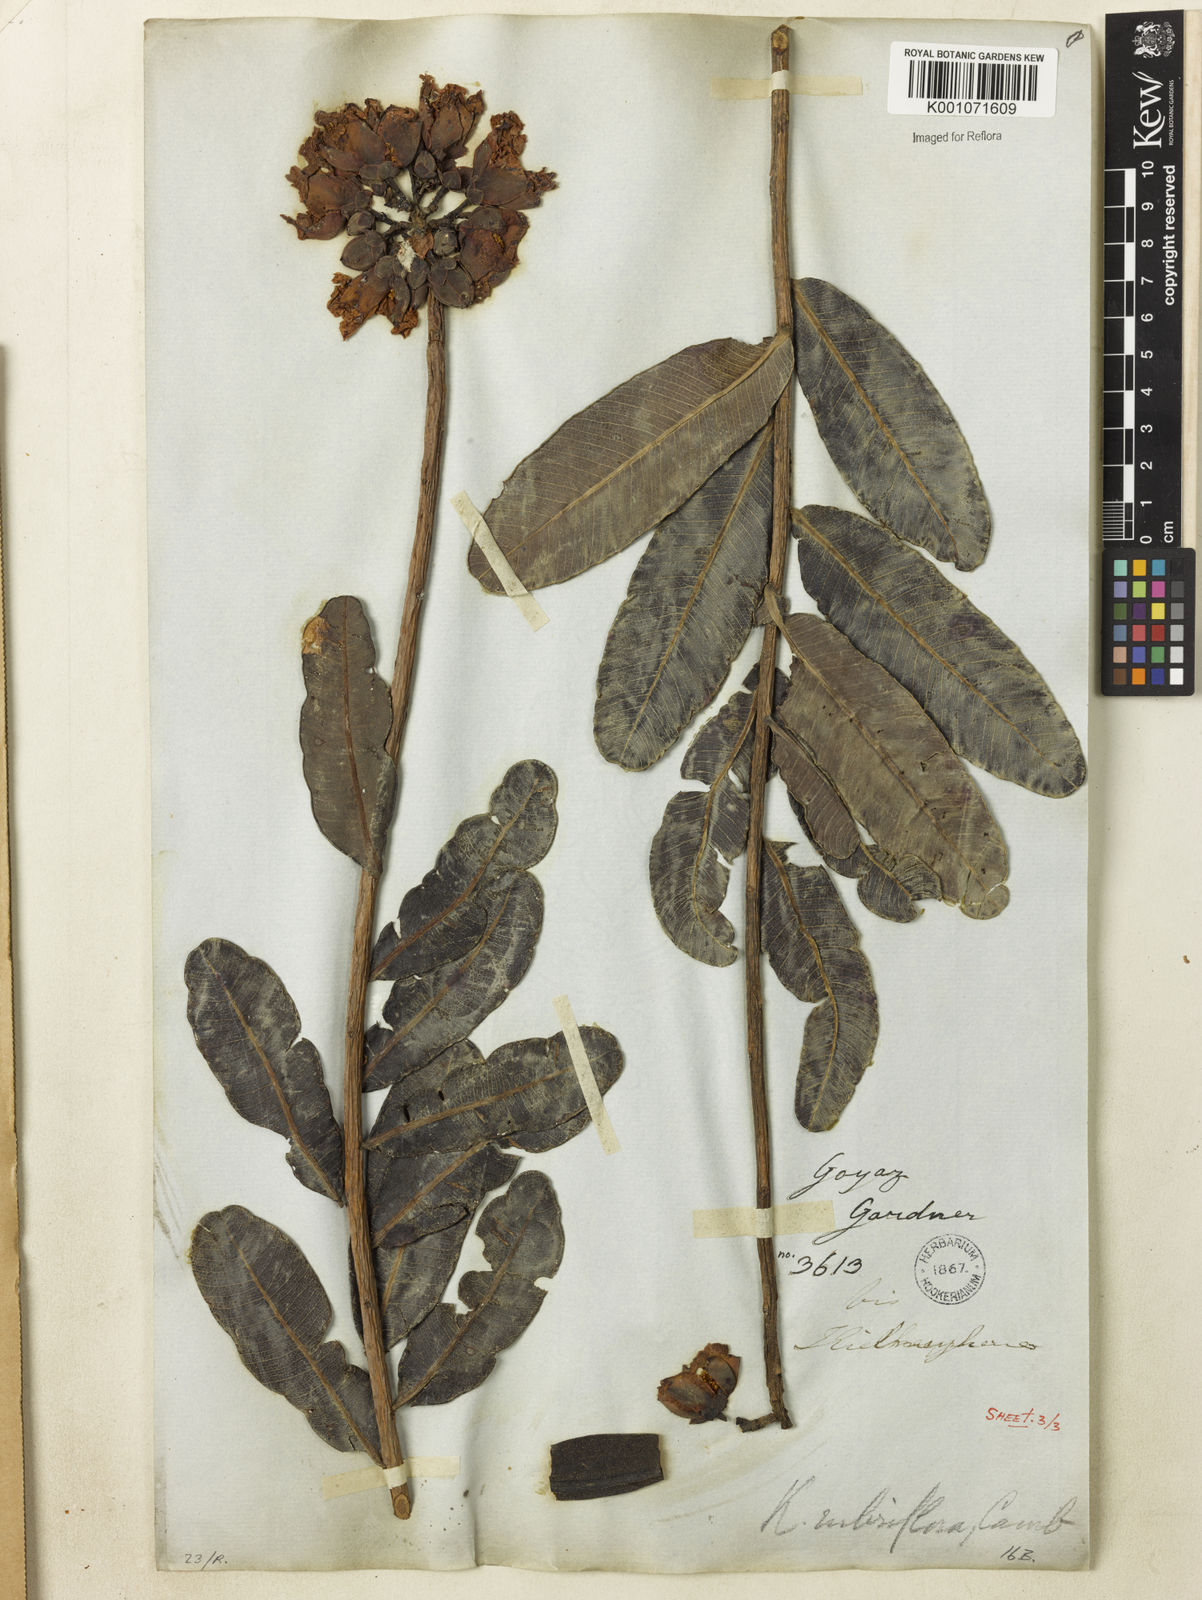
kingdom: Plantae
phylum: Tracheophyta
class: Magnoliopsida
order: Malpighiales
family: Calophyllaceae
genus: Kielmeyera
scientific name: Kielmeyera rubriflora
